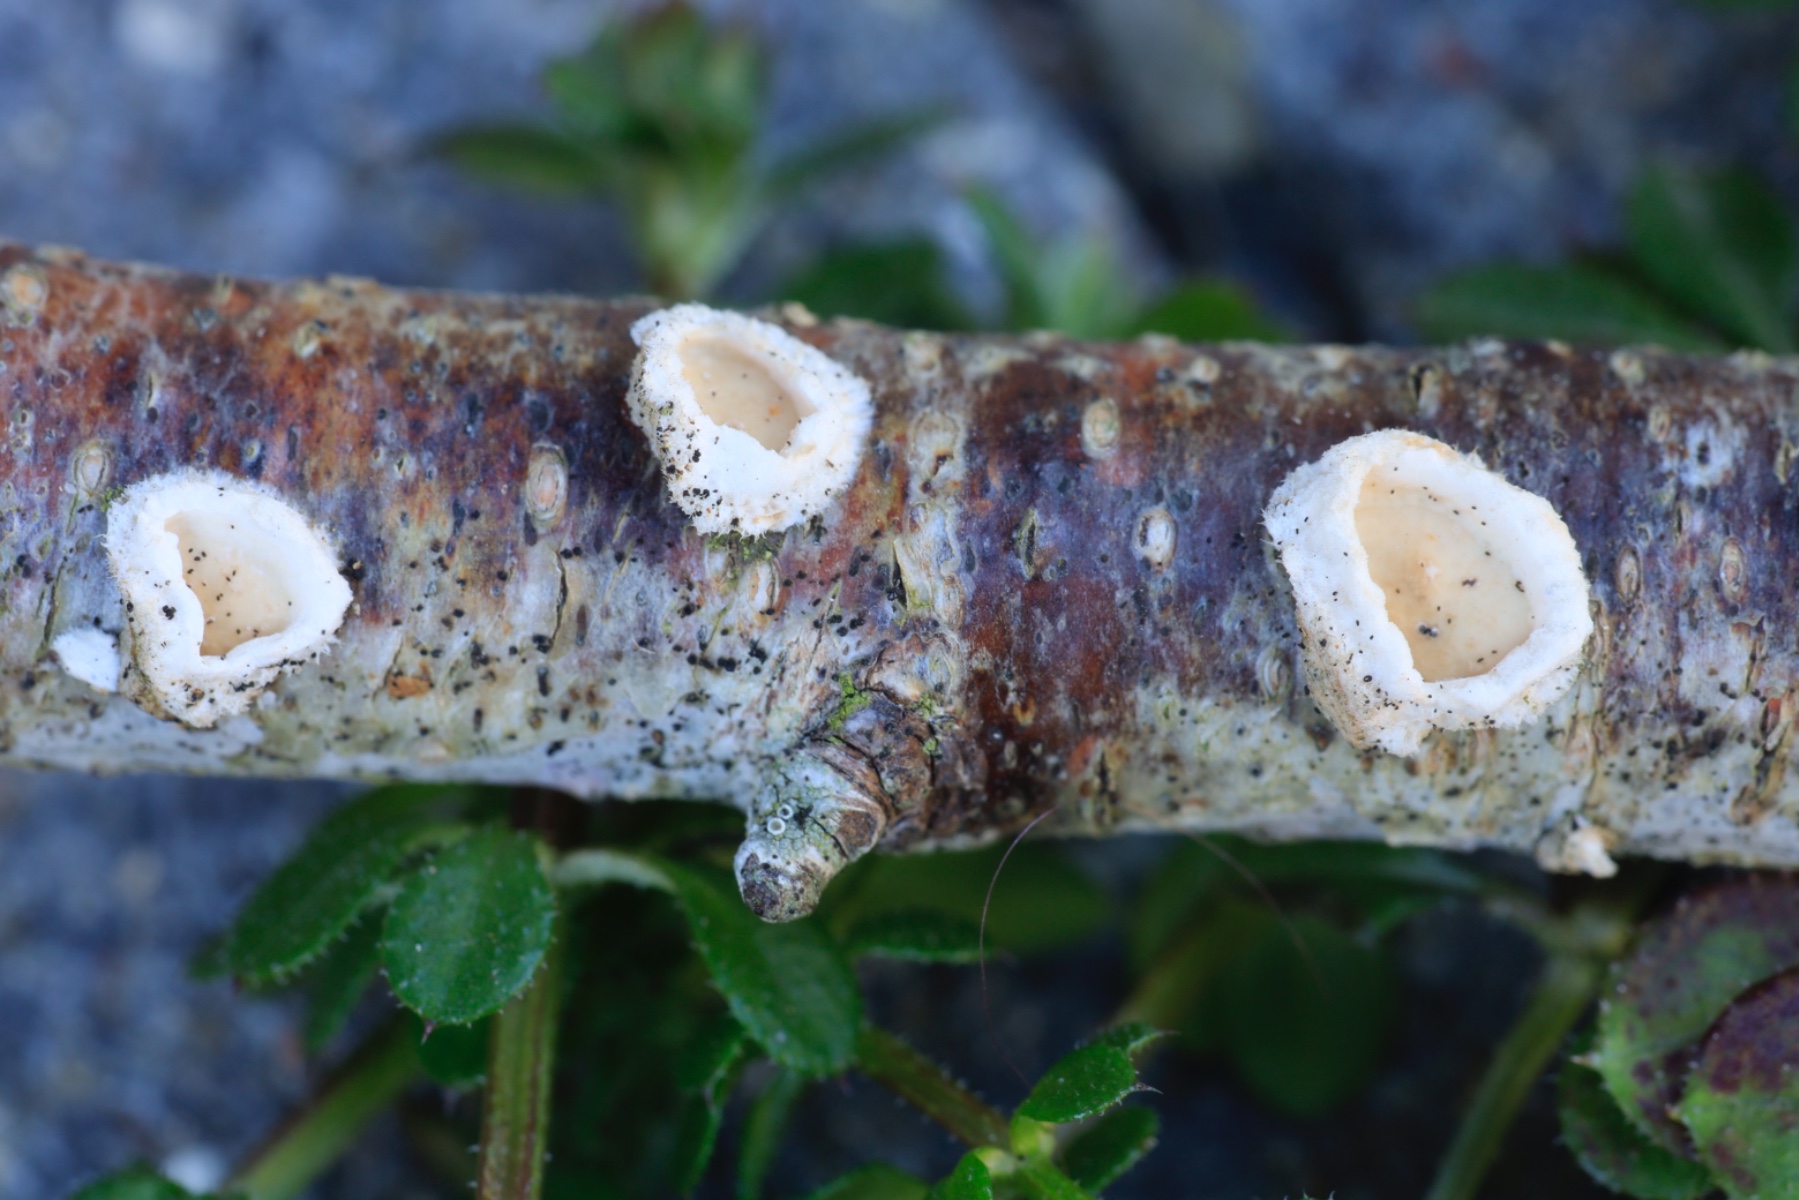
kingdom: Fungi
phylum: Basidiomycota
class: Agaricomycetes
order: Corticiales
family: Corticiaceae
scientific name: Corticiaceae
